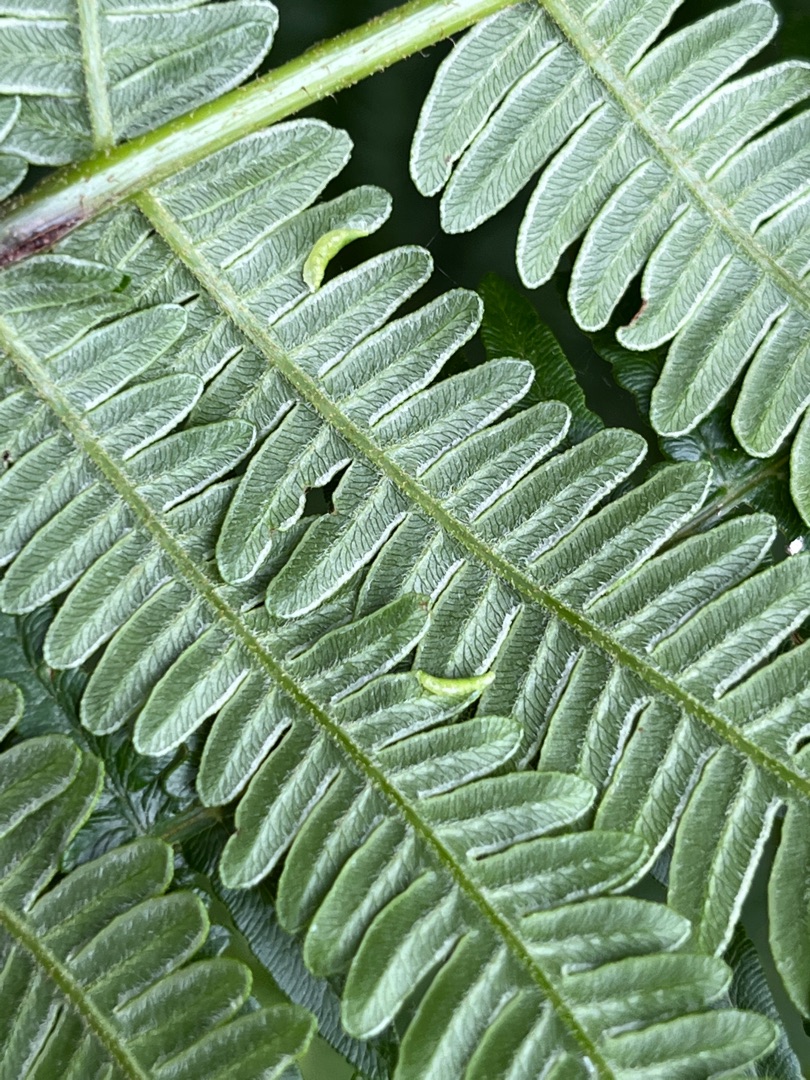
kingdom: Animalia
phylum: Arthropoda
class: Insecta
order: Diptera
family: Cecidomyiidae
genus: Dasineura
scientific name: Dasineura pteridicola
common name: Hvid ørnebregnegalmyg
